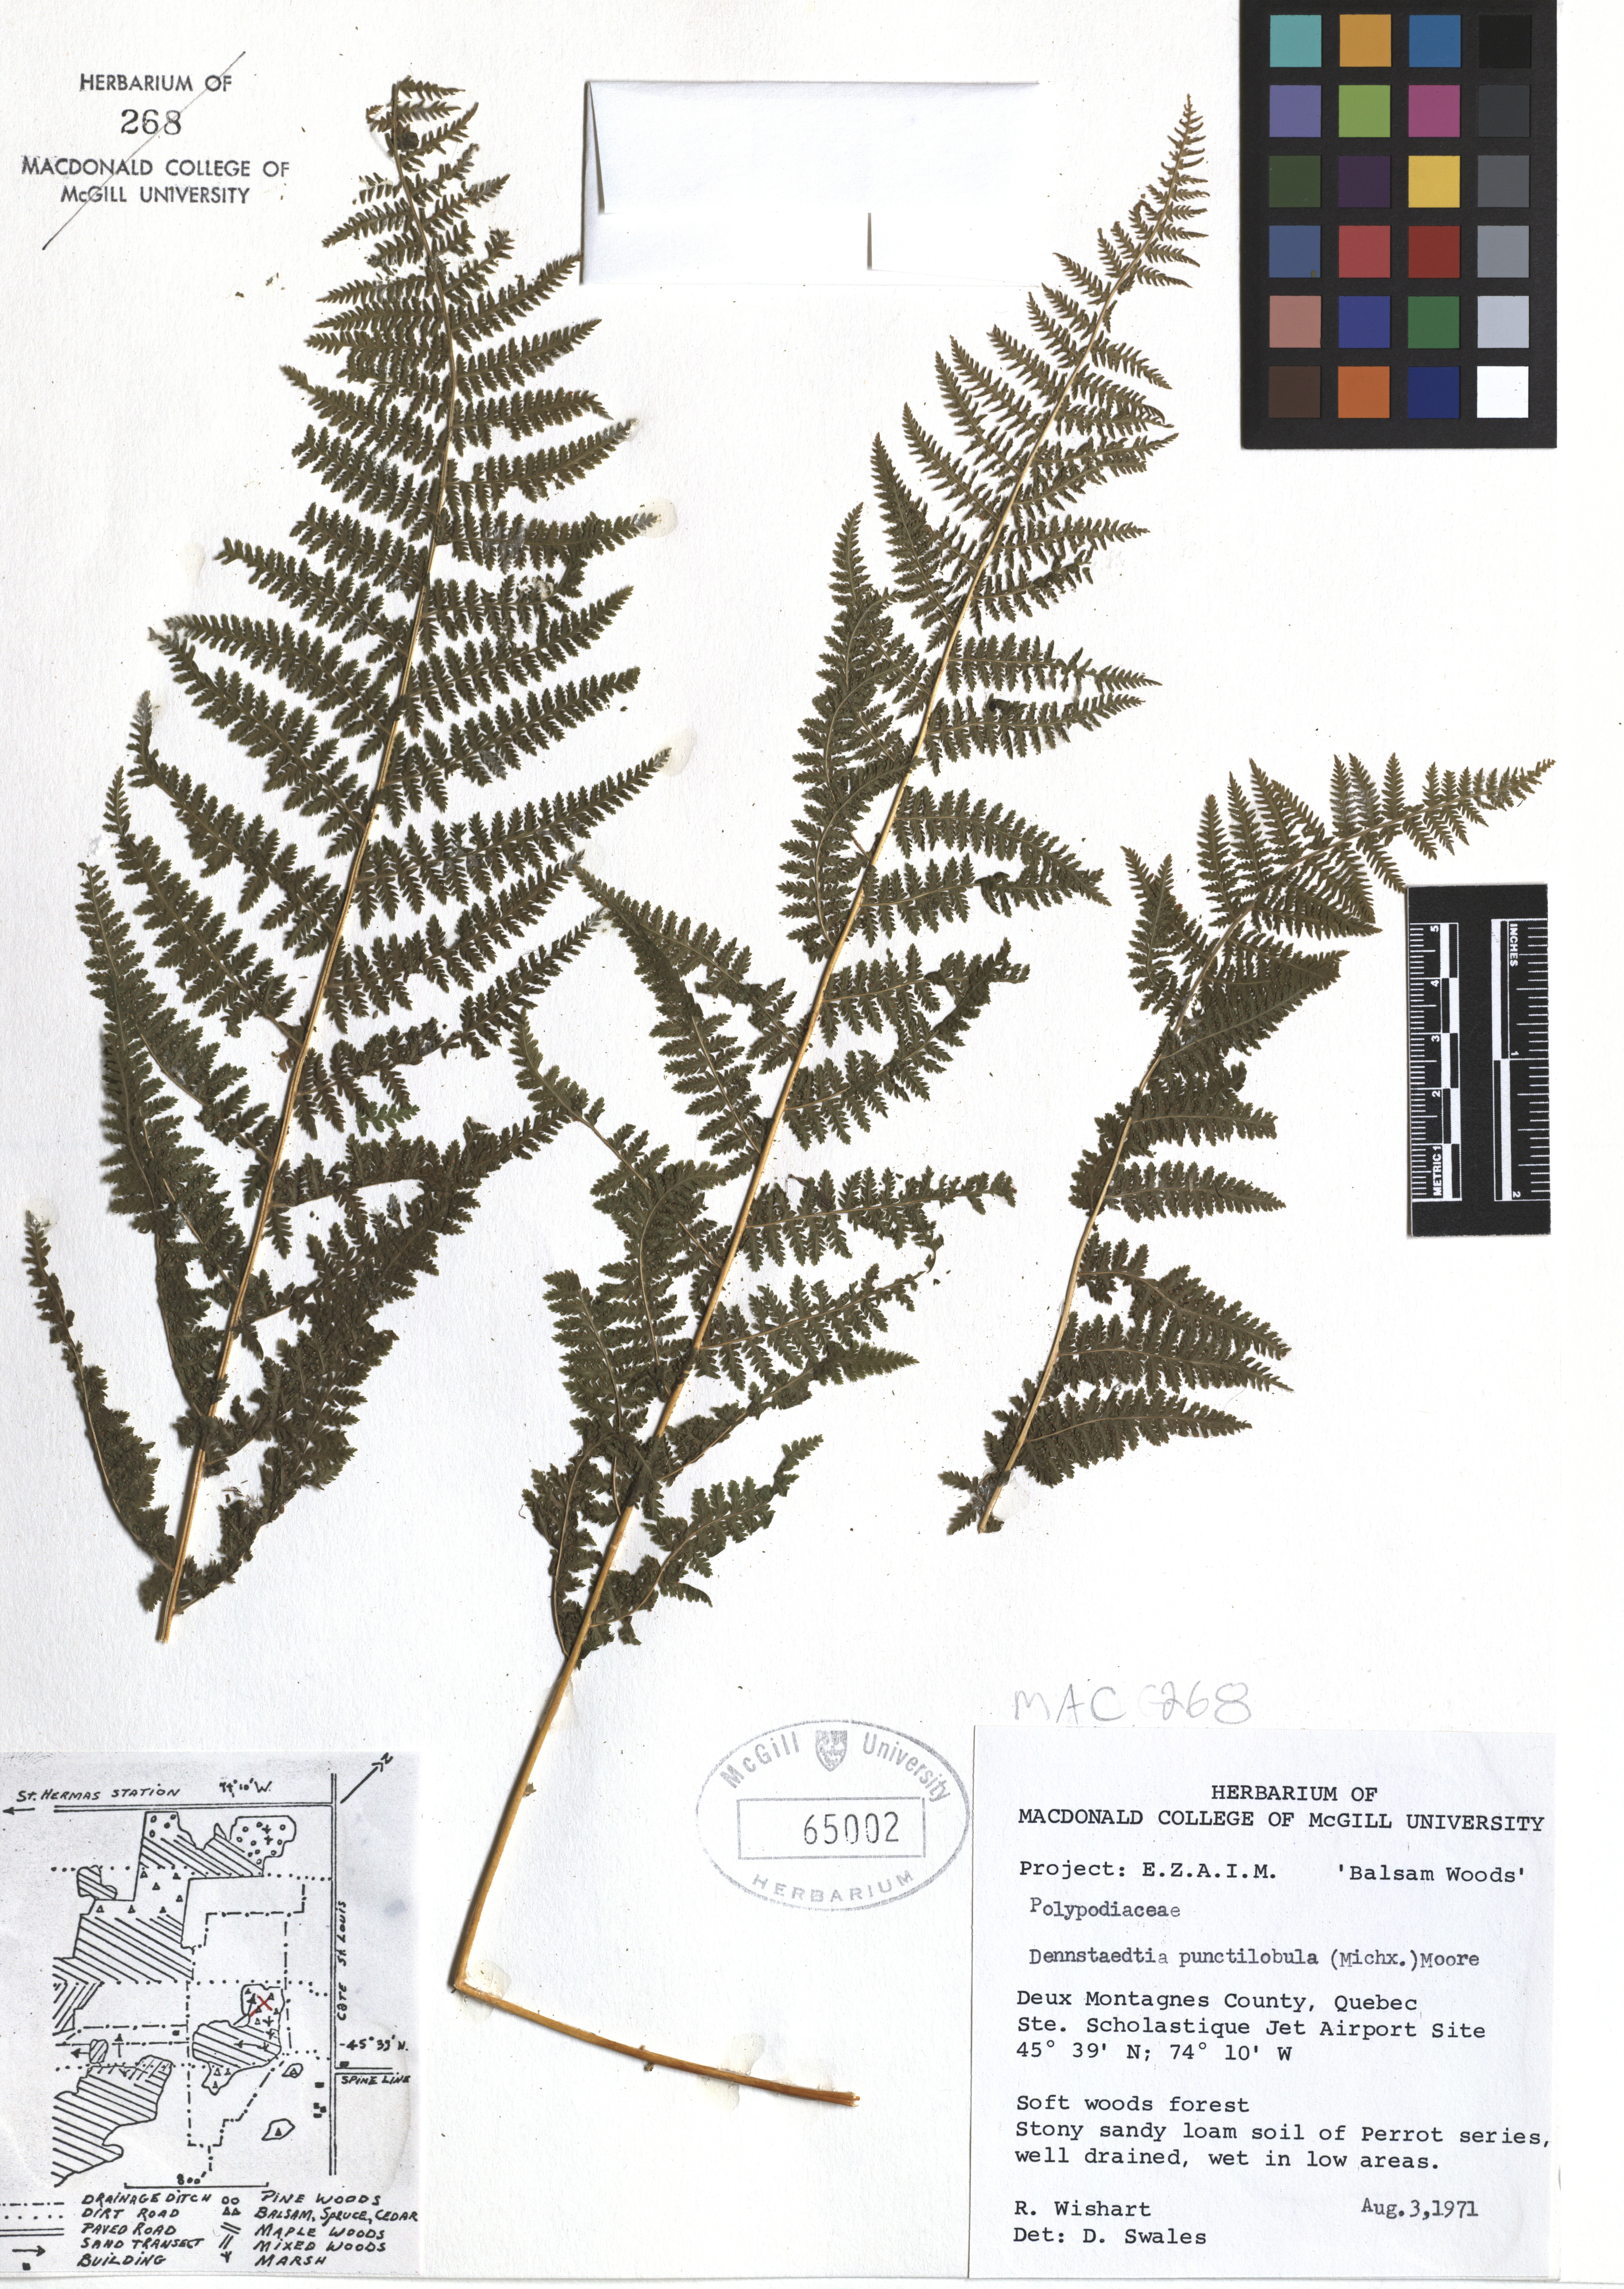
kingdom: Plantae
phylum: Tracheophyta
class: Polypodiopsida
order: Polypodiales
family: Dennstaedtiaceae
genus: Sitobolium
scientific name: Sitobolium punctilobum
